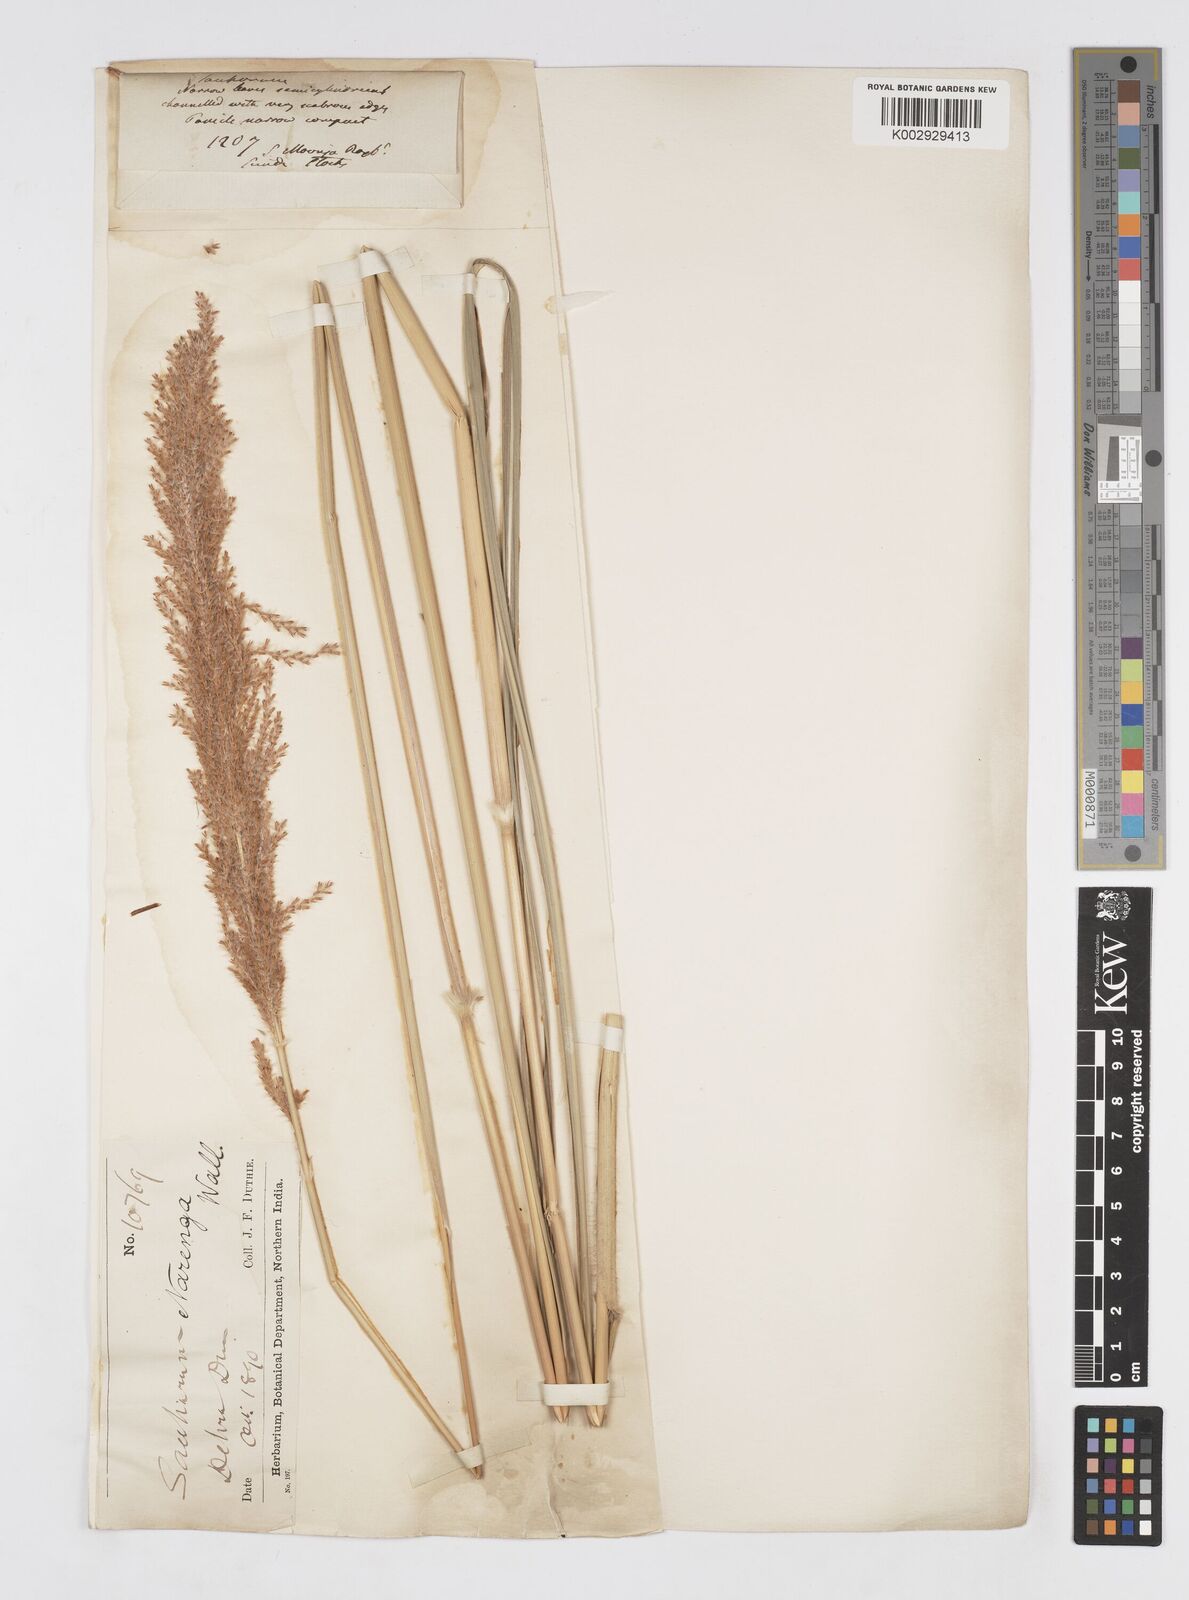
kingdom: Plantae
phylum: Tracheophyta
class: Liliopsida
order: Poales
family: Poaceae
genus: Narenga
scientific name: Narenga porphyrocoma
